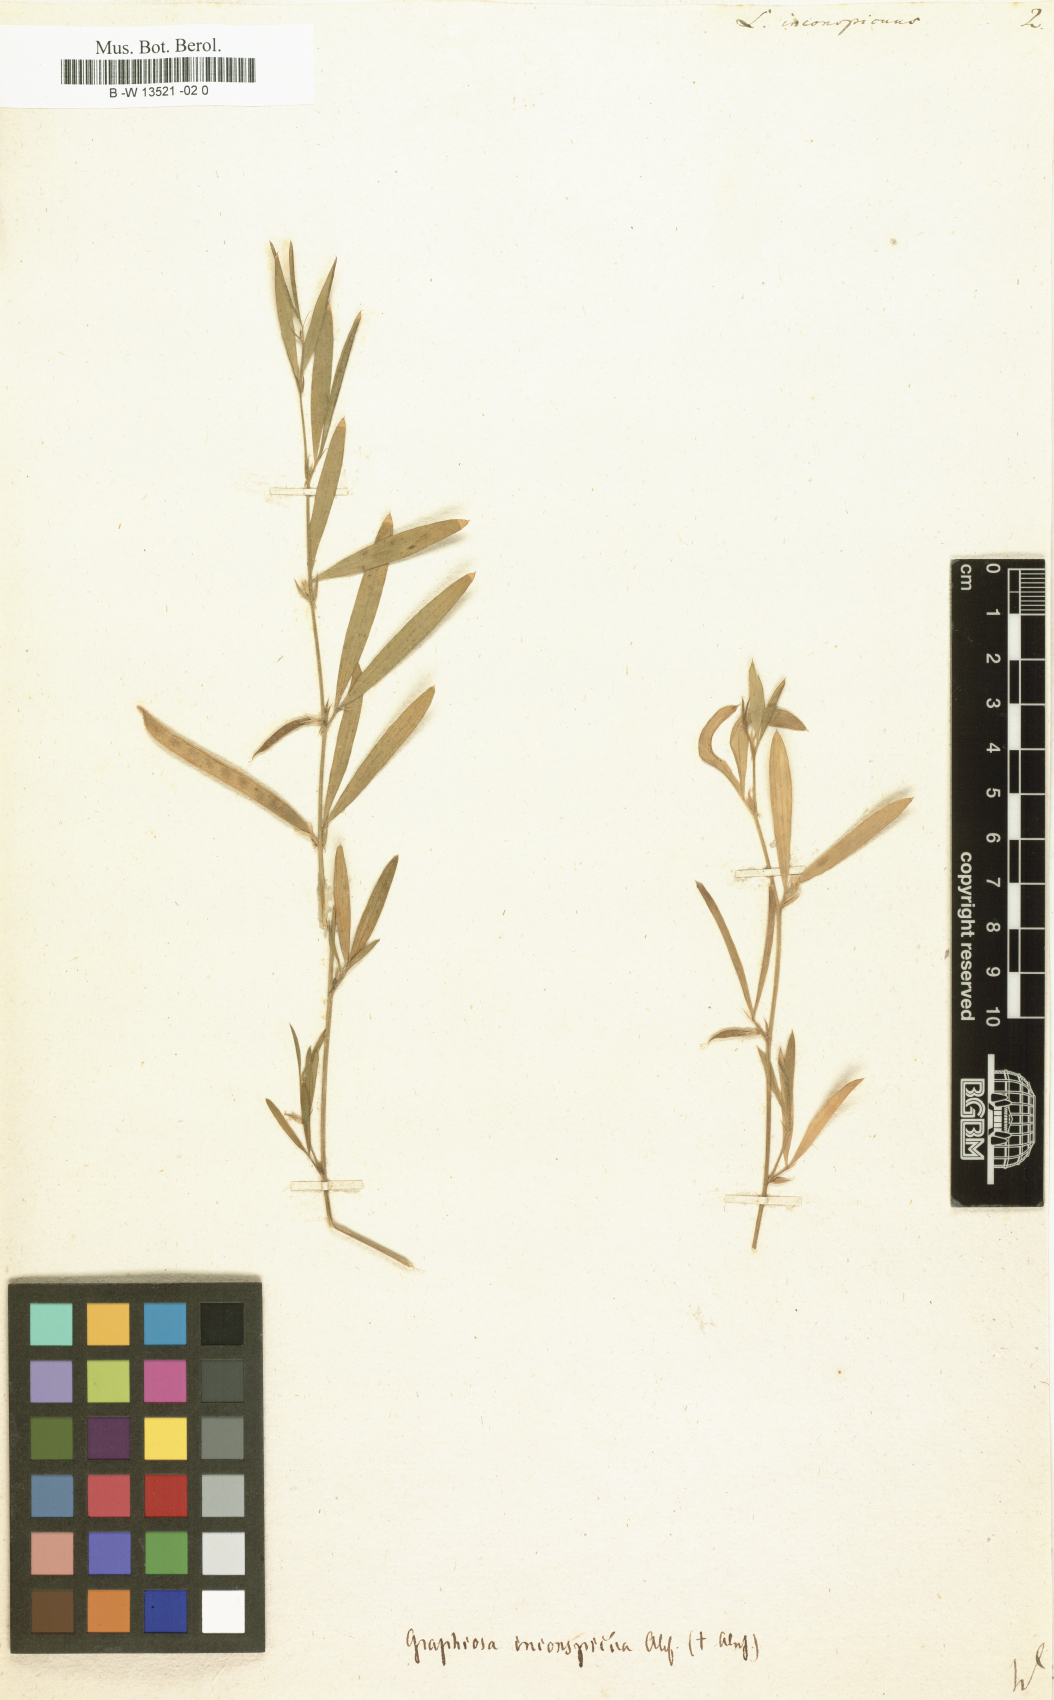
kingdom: Plantae
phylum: Tracheophyta
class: Magnoliopsida
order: Fabales
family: Fabaceae
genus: Lathyrus
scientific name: Lathyrus inconspicuus
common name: Inconspicuous pea
